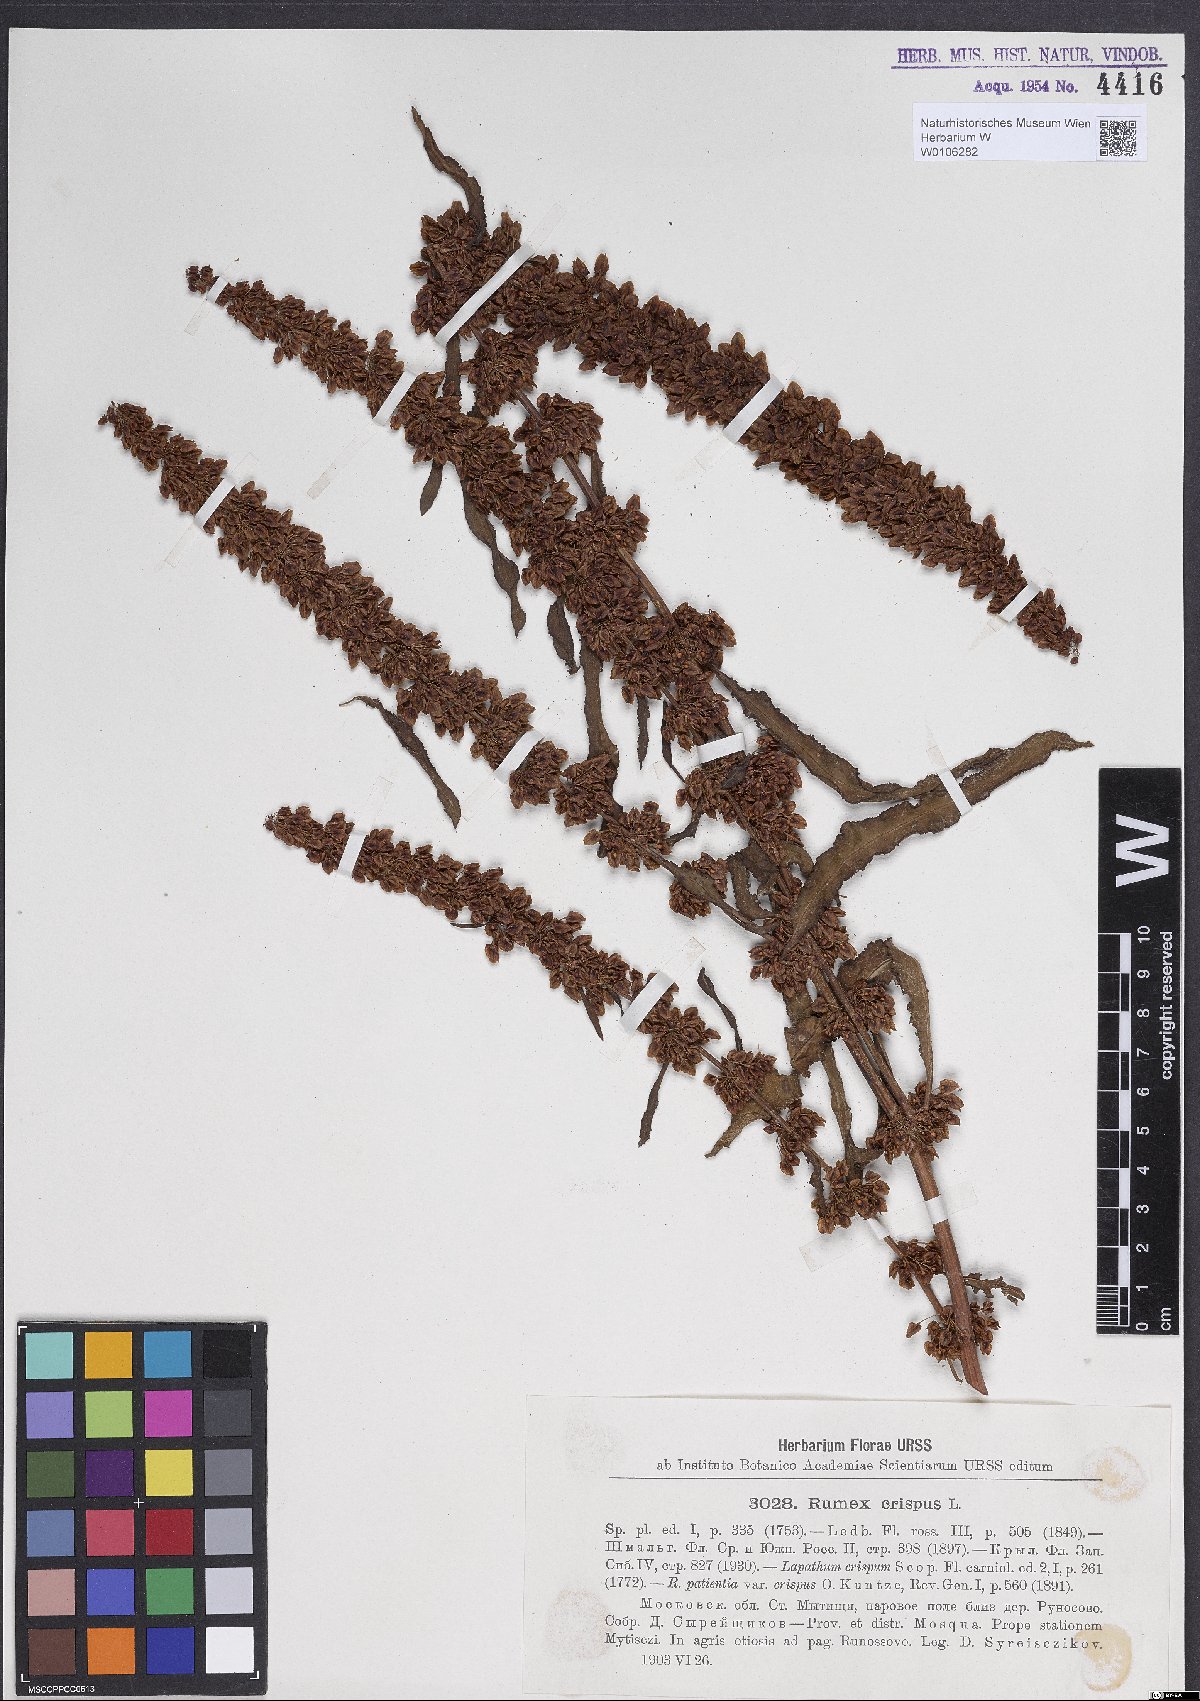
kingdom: Plantae
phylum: Tracheophyta
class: Magnoliopsida
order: Caryophyllales
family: Polygonaceae
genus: Rumex
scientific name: Rumex crispus
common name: Curled dock
